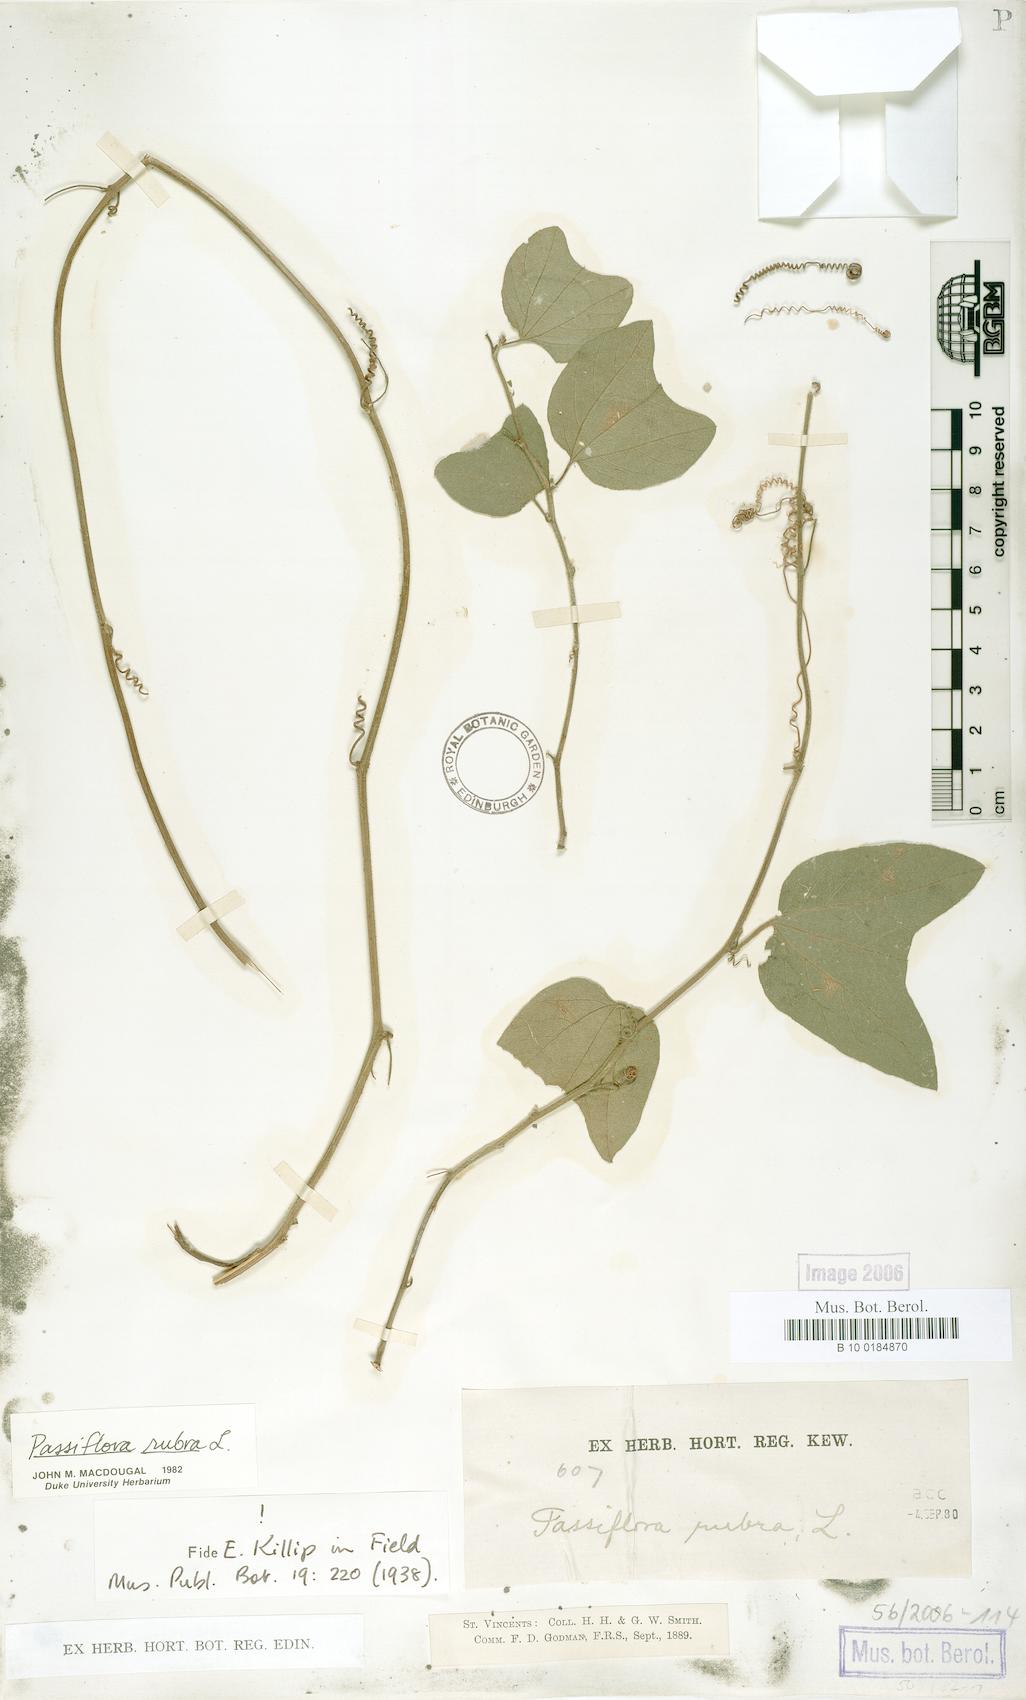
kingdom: Plantae
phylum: Tracheophyta
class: Magnoliopsida
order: Malpighiales
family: Passifloraceae
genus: Passiflora
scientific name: Passiflora rubra
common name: Snakeberry vine
